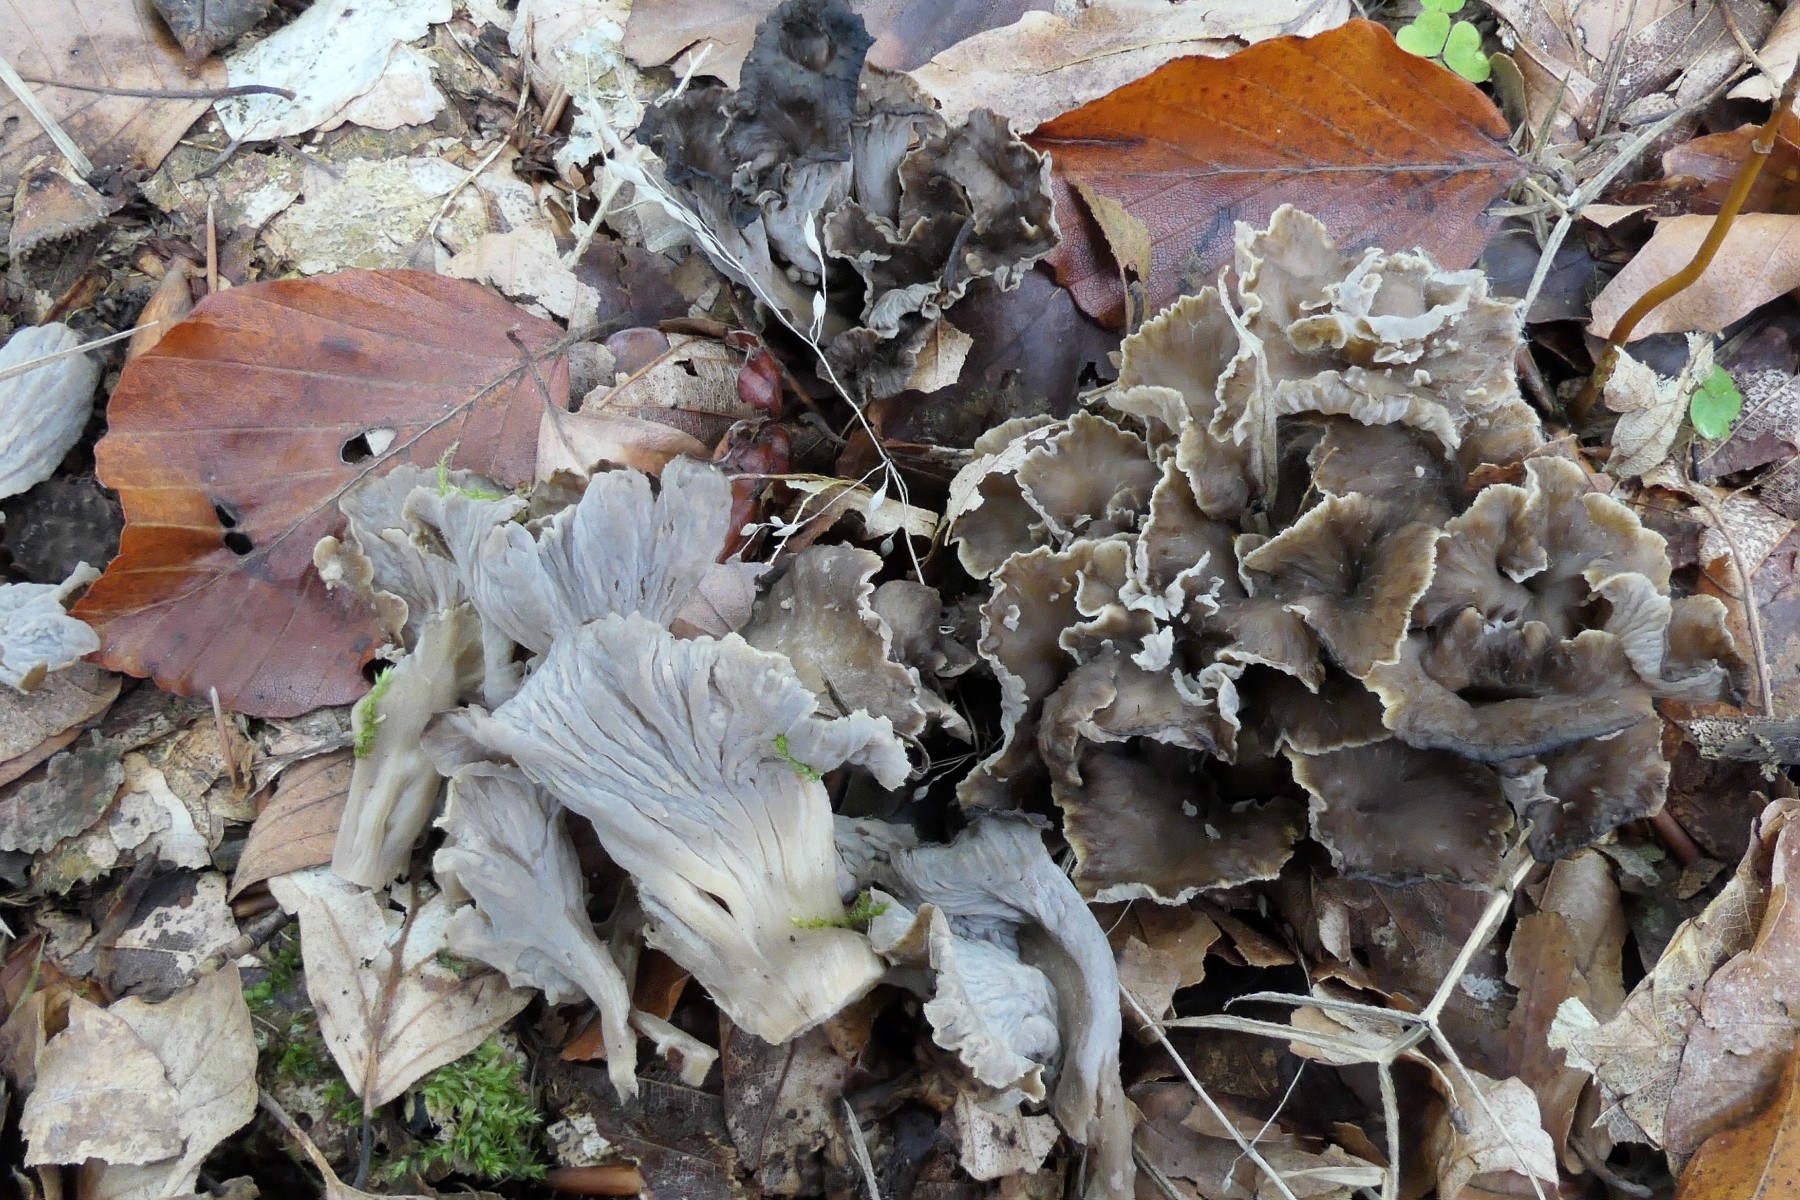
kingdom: Fungi
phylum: Basidiomycota
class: Agaricomycetes
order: Cantharellales
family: Hydnaceae
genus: Craterellus
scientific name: Craterellus undulatus
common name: liden kantarel
